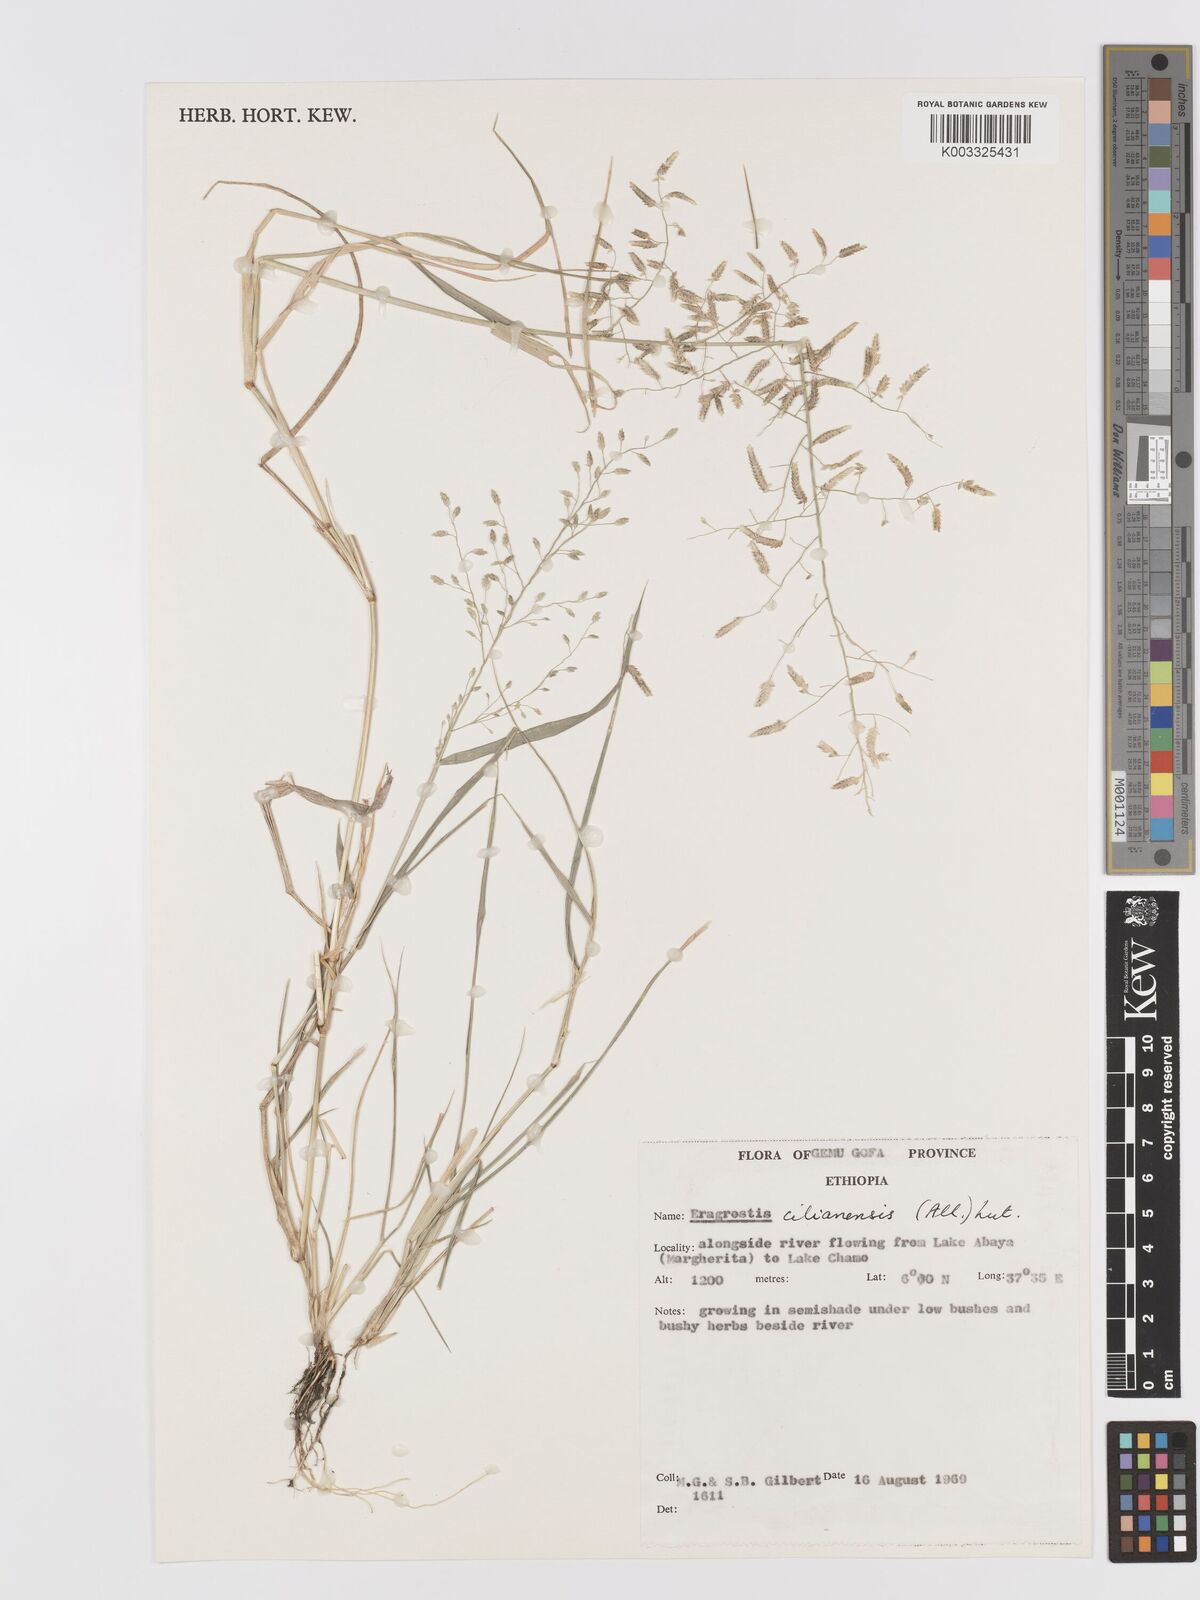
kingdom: Plantae
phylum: Tracheophyta
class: Liliopsida
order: Poales
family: Poaceae
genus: Eragrostis
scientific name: Eragrostis cilianensis
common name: Stinkgrass
